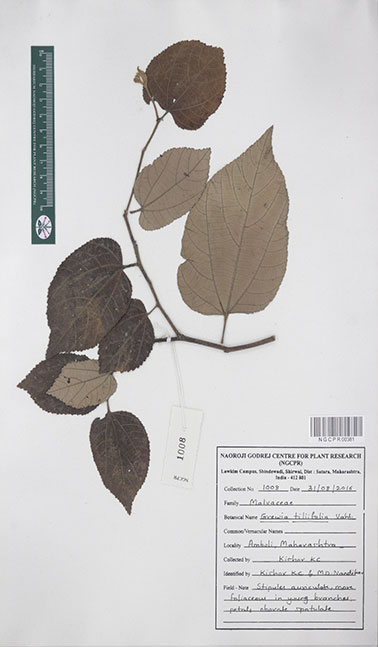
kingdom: Plantae
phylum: Tracheophyta
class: Magnoliopsida
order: Malvales
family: Malvaceae
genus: Grewia
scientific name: Grewia tiliifolia
